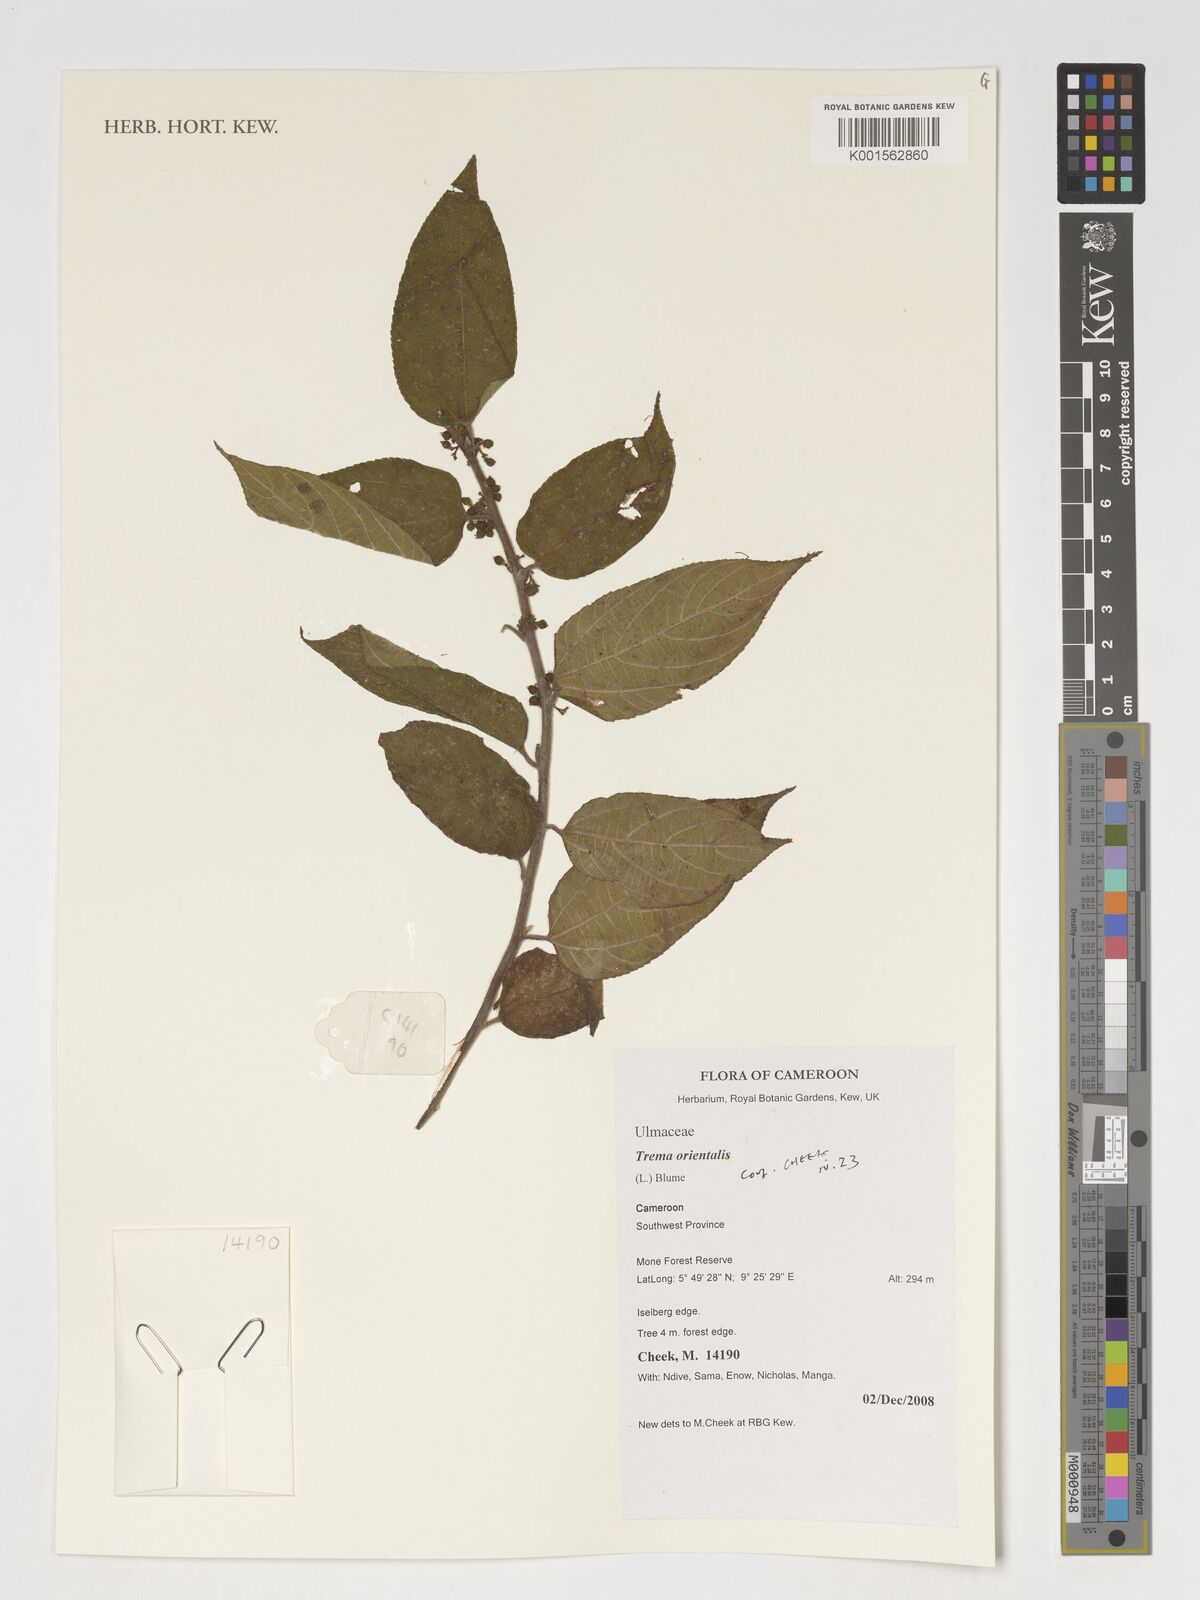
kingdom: Plantae
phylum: Tracheophyta
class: Magnoliopsida
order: Rosales
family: Cannabaceae
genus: Trema
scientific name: Trema orientale
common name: Indian charcoal tree
